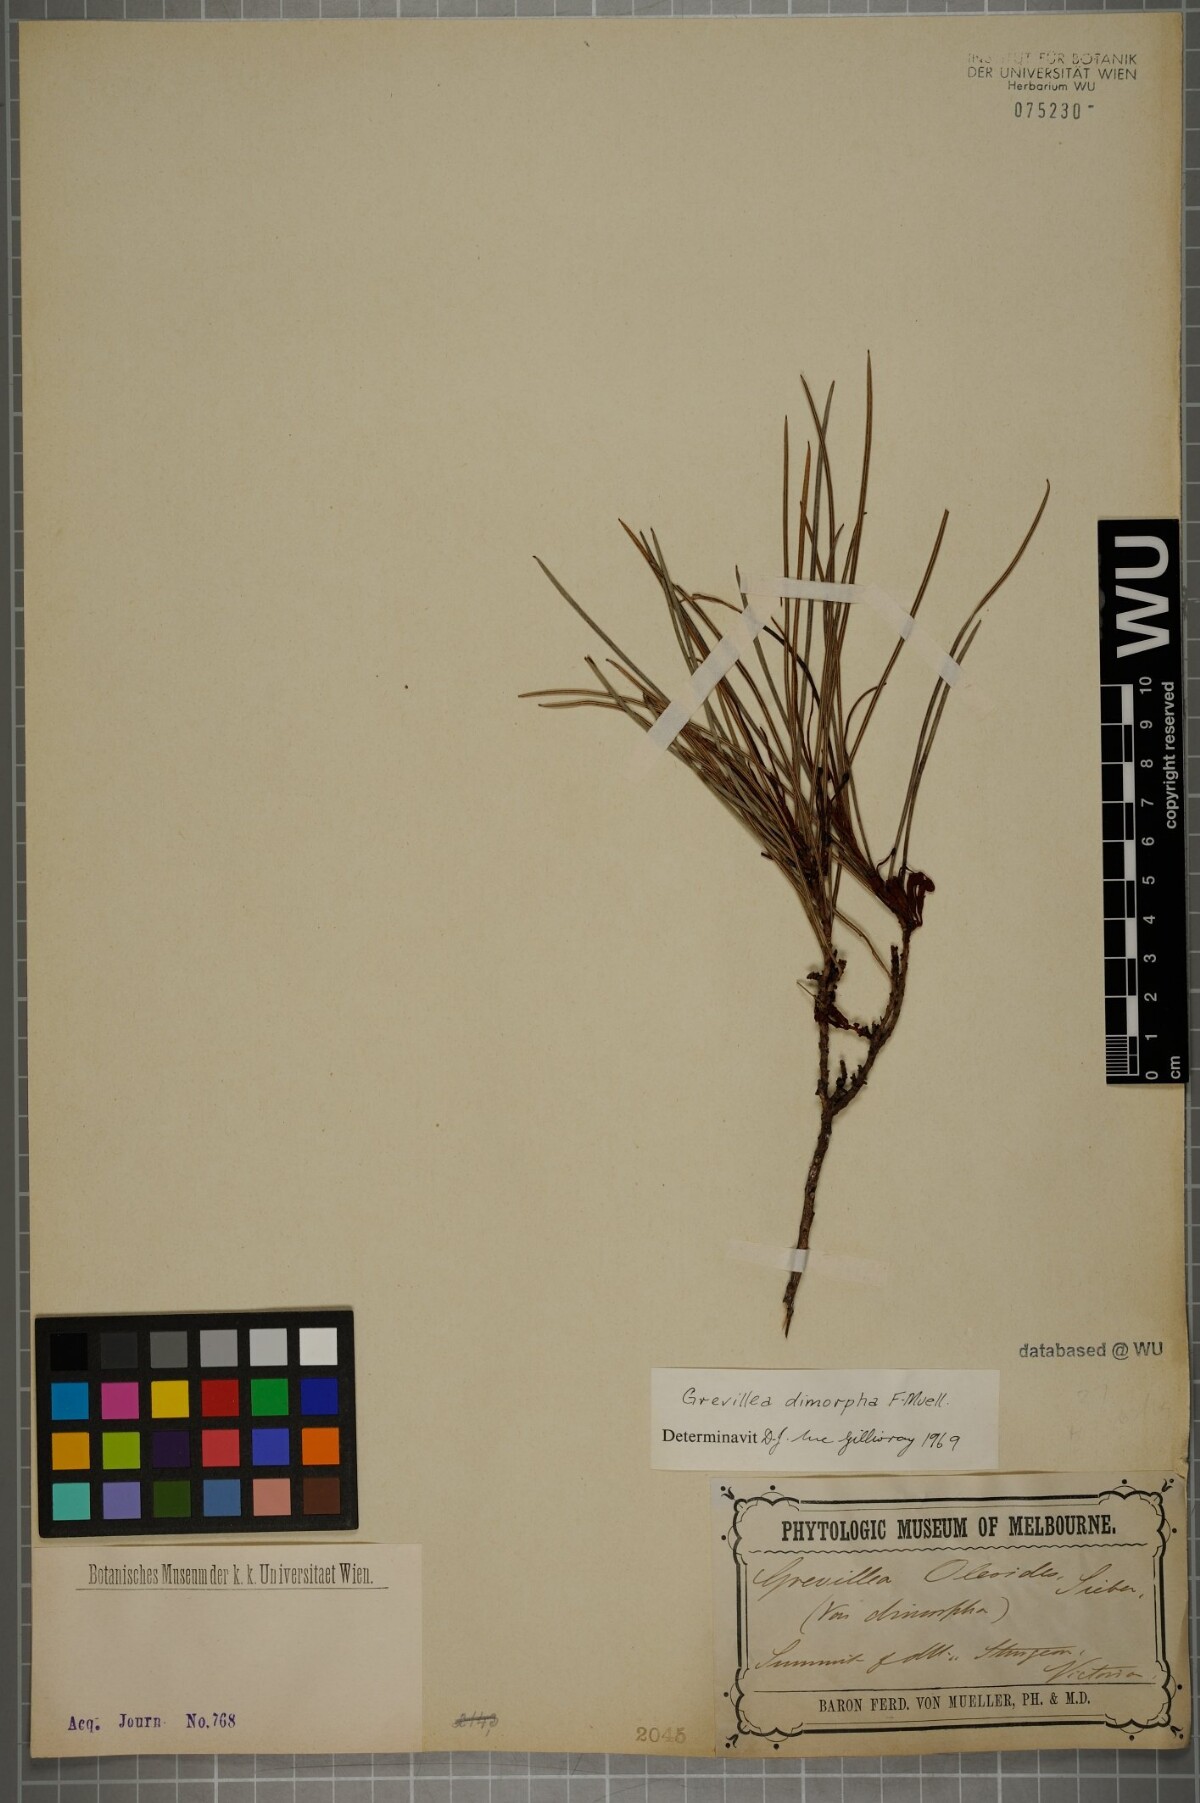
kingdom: Plantae
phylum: Tracheophyta
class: Magnoliopsida
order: Proteales
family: Proteaceae
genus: Grevillea
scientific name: Grevillea dimorpha
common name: Flame grevillea
